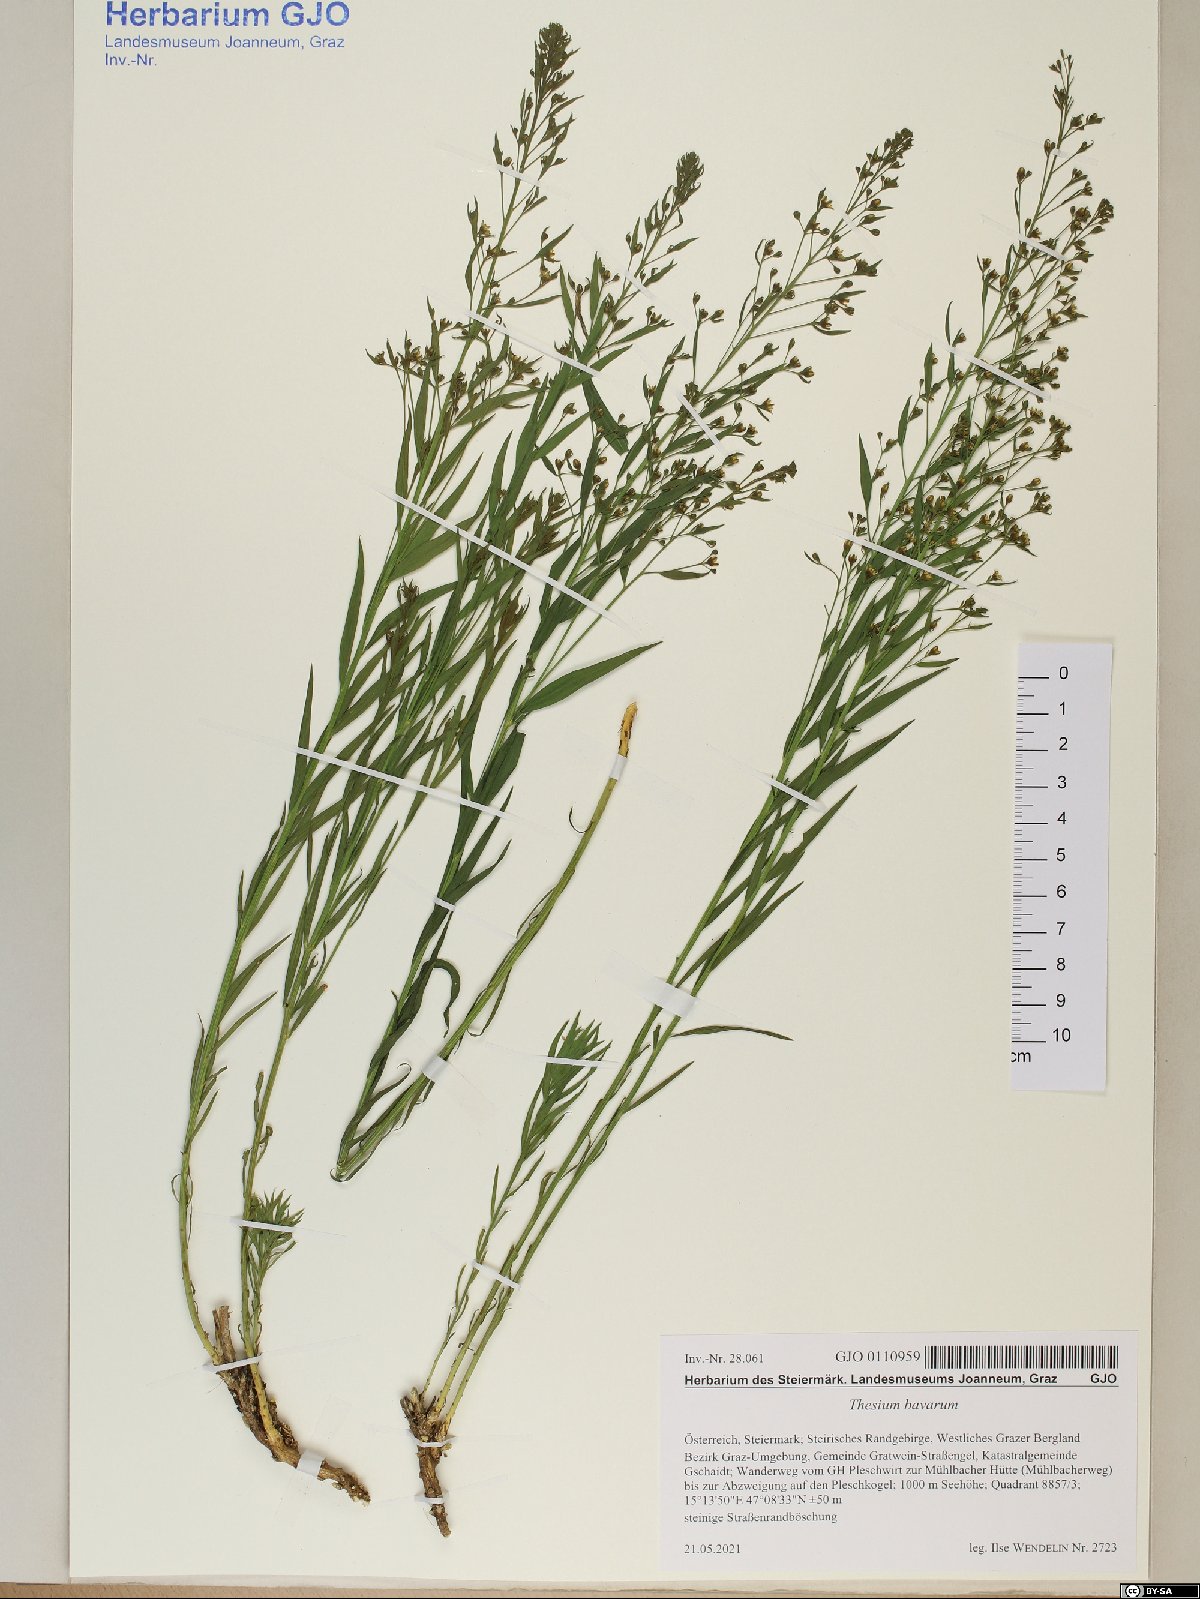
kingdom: Plantae
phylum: Tracheophyta
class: Magnoliopsida
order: Santalales
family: Thesiaceae
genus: Thesium
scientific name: Thesium bavarum
